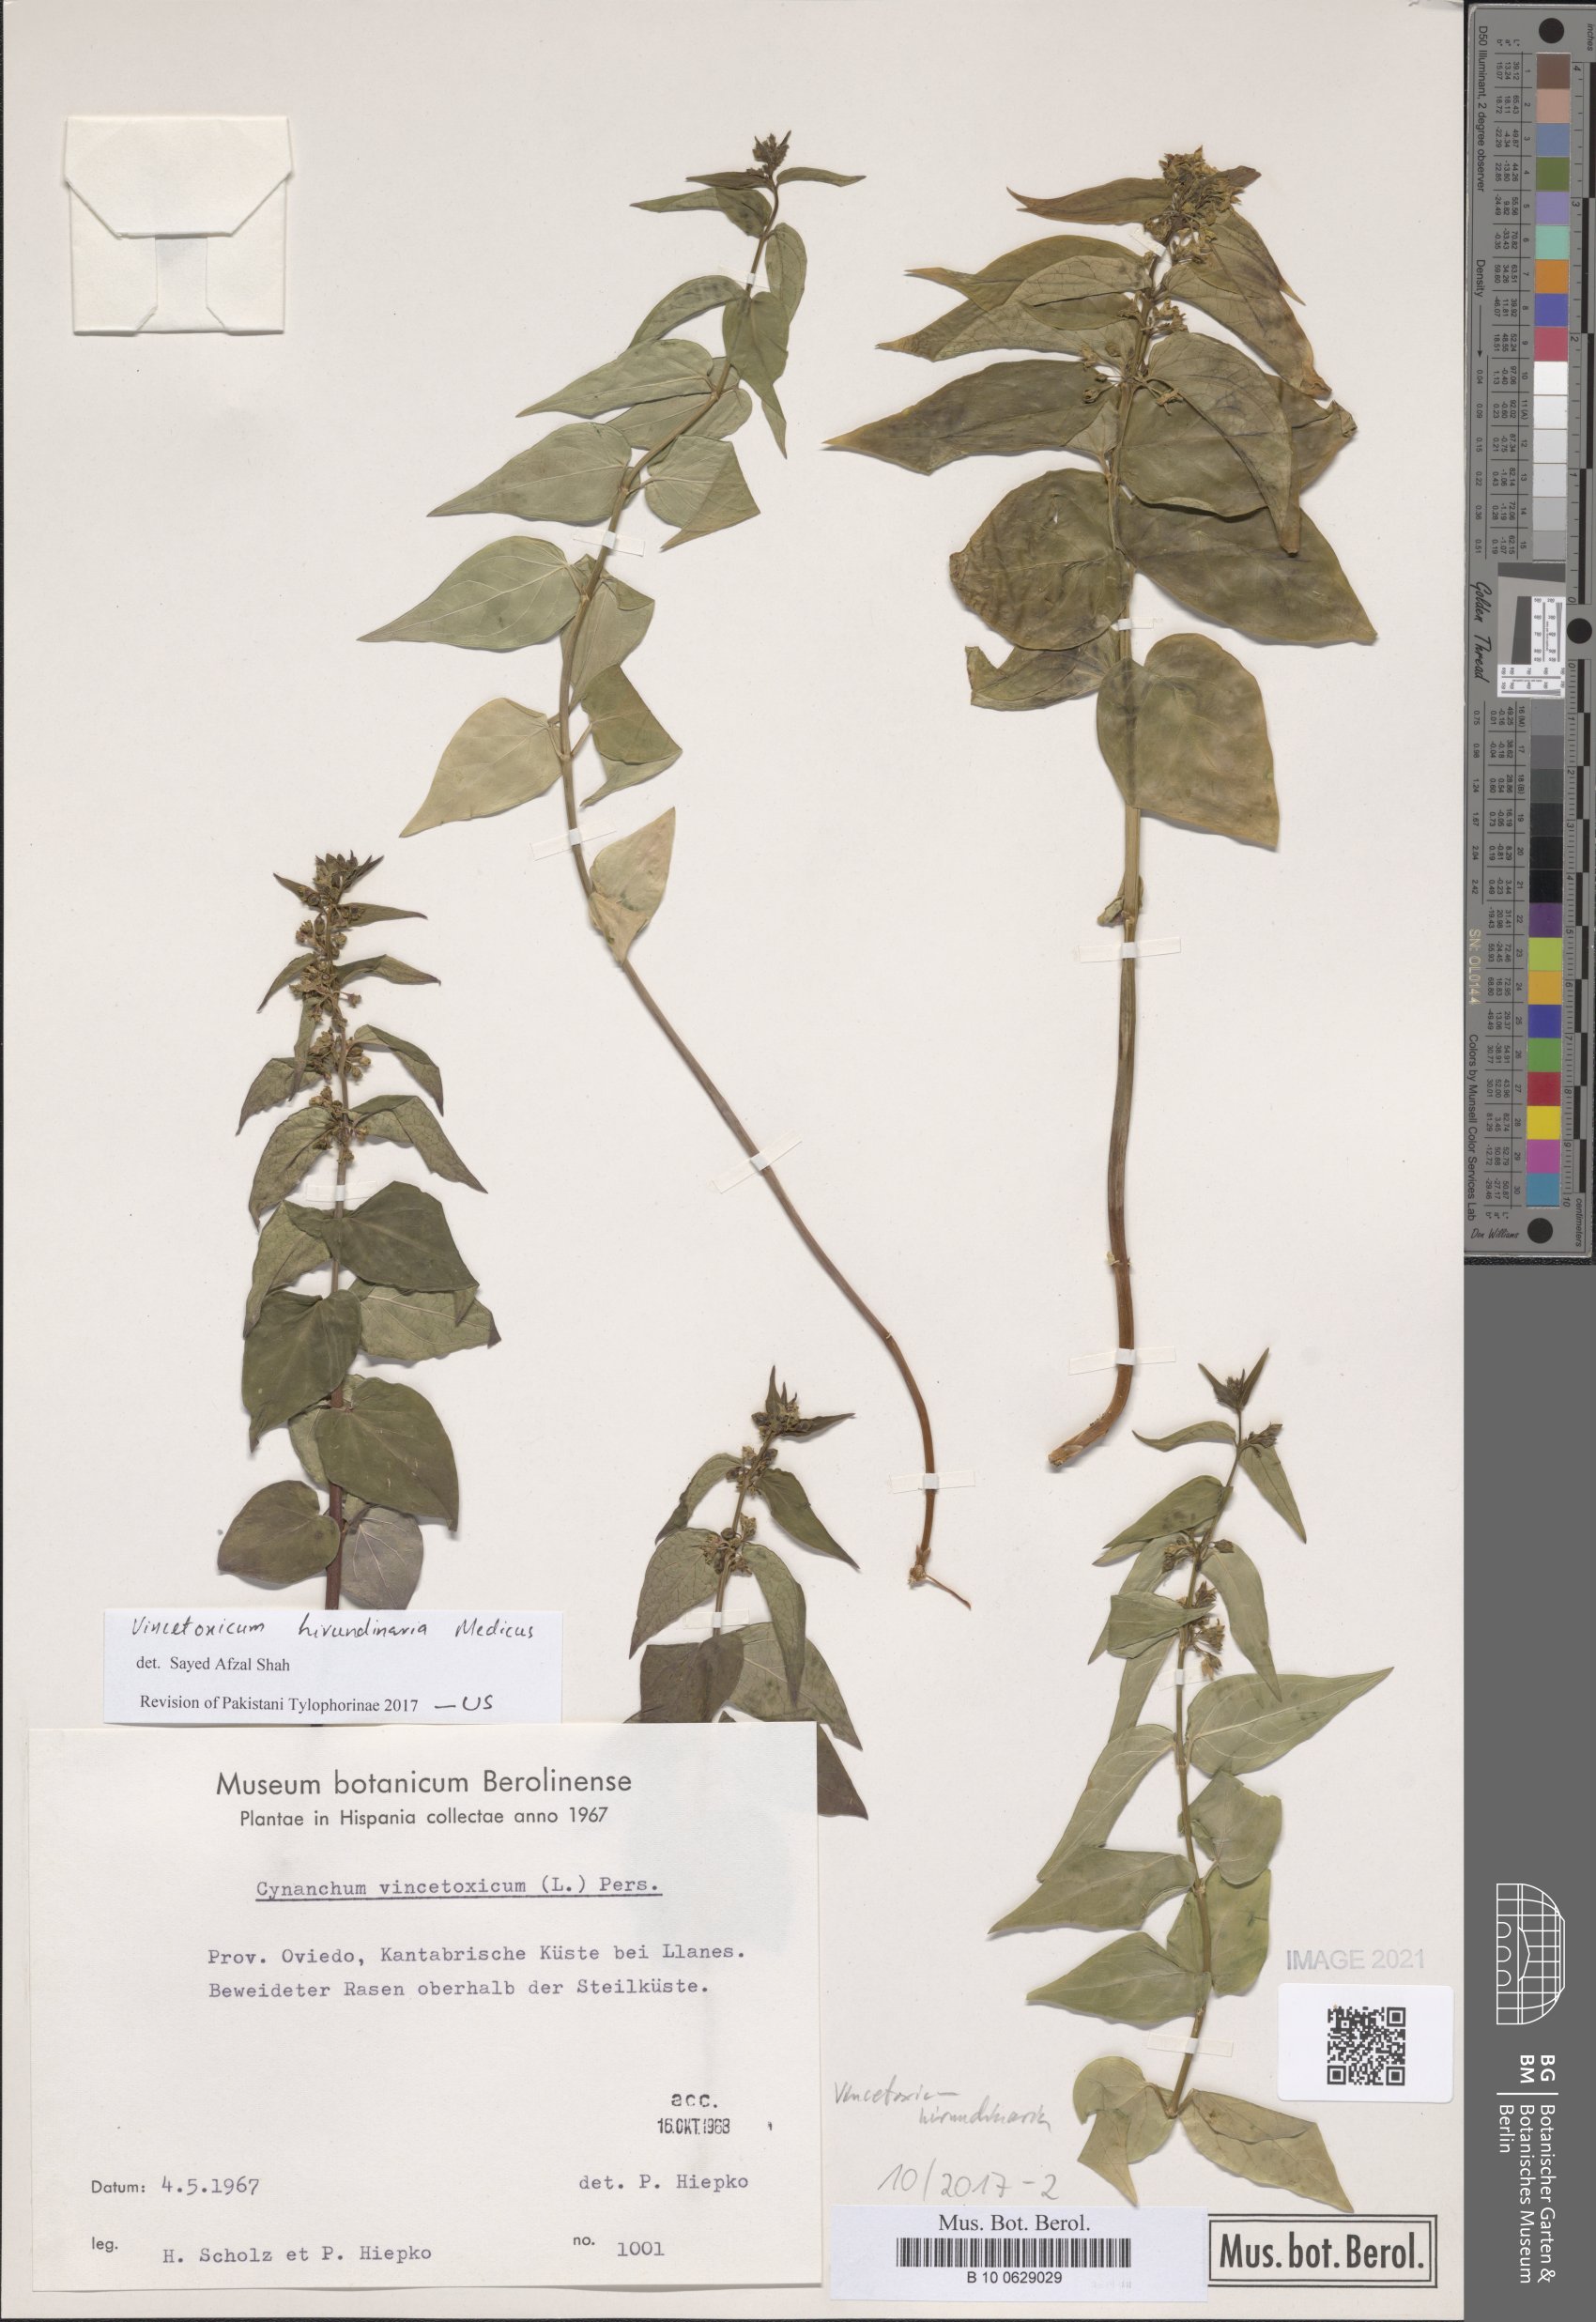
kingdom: Plantae
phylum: Tracheophyta
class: Magnoliopsida
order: Gentianales
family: Apocynaceae
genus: Vincetoxicum
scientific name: Vincetoxicum hirundinaria
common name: White swallowwort
